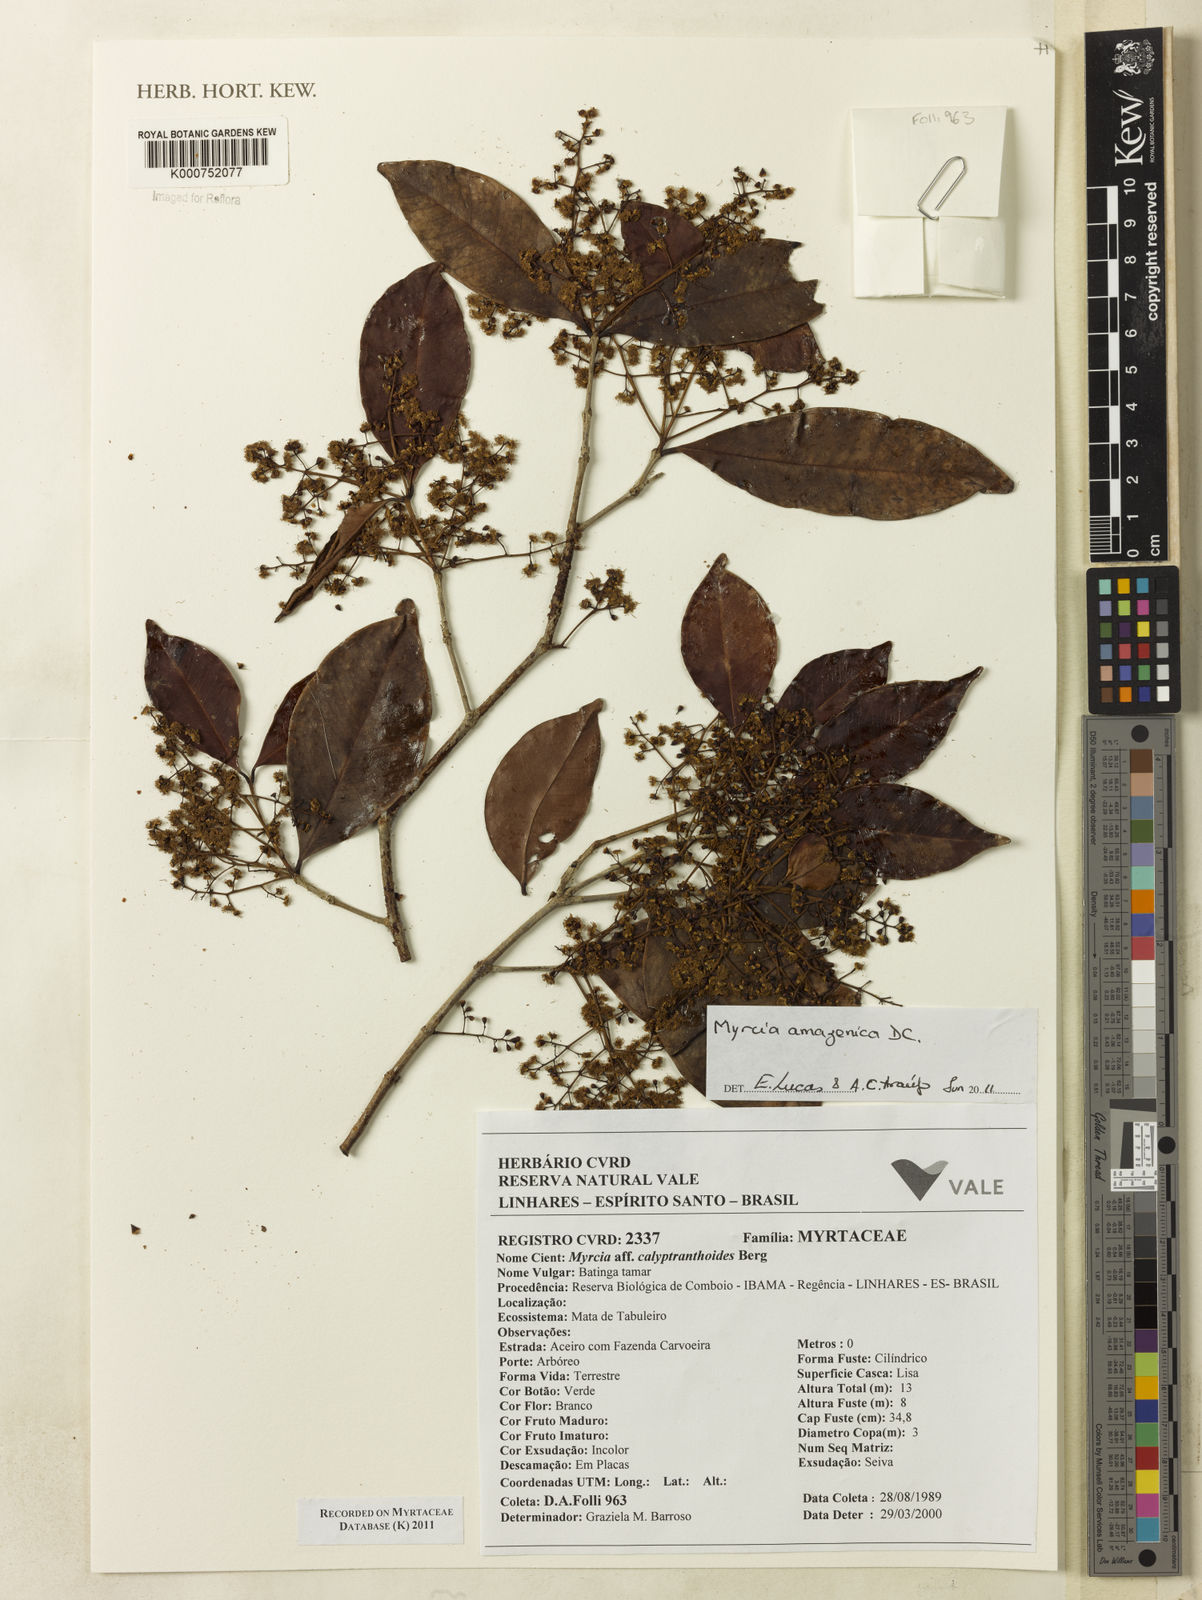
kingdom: Plantae
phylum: Tracheophyta
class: Magnoliopsida
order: Myrtales
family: Myrtaceae
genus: Myrcia
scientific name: Myrcia amazonica
